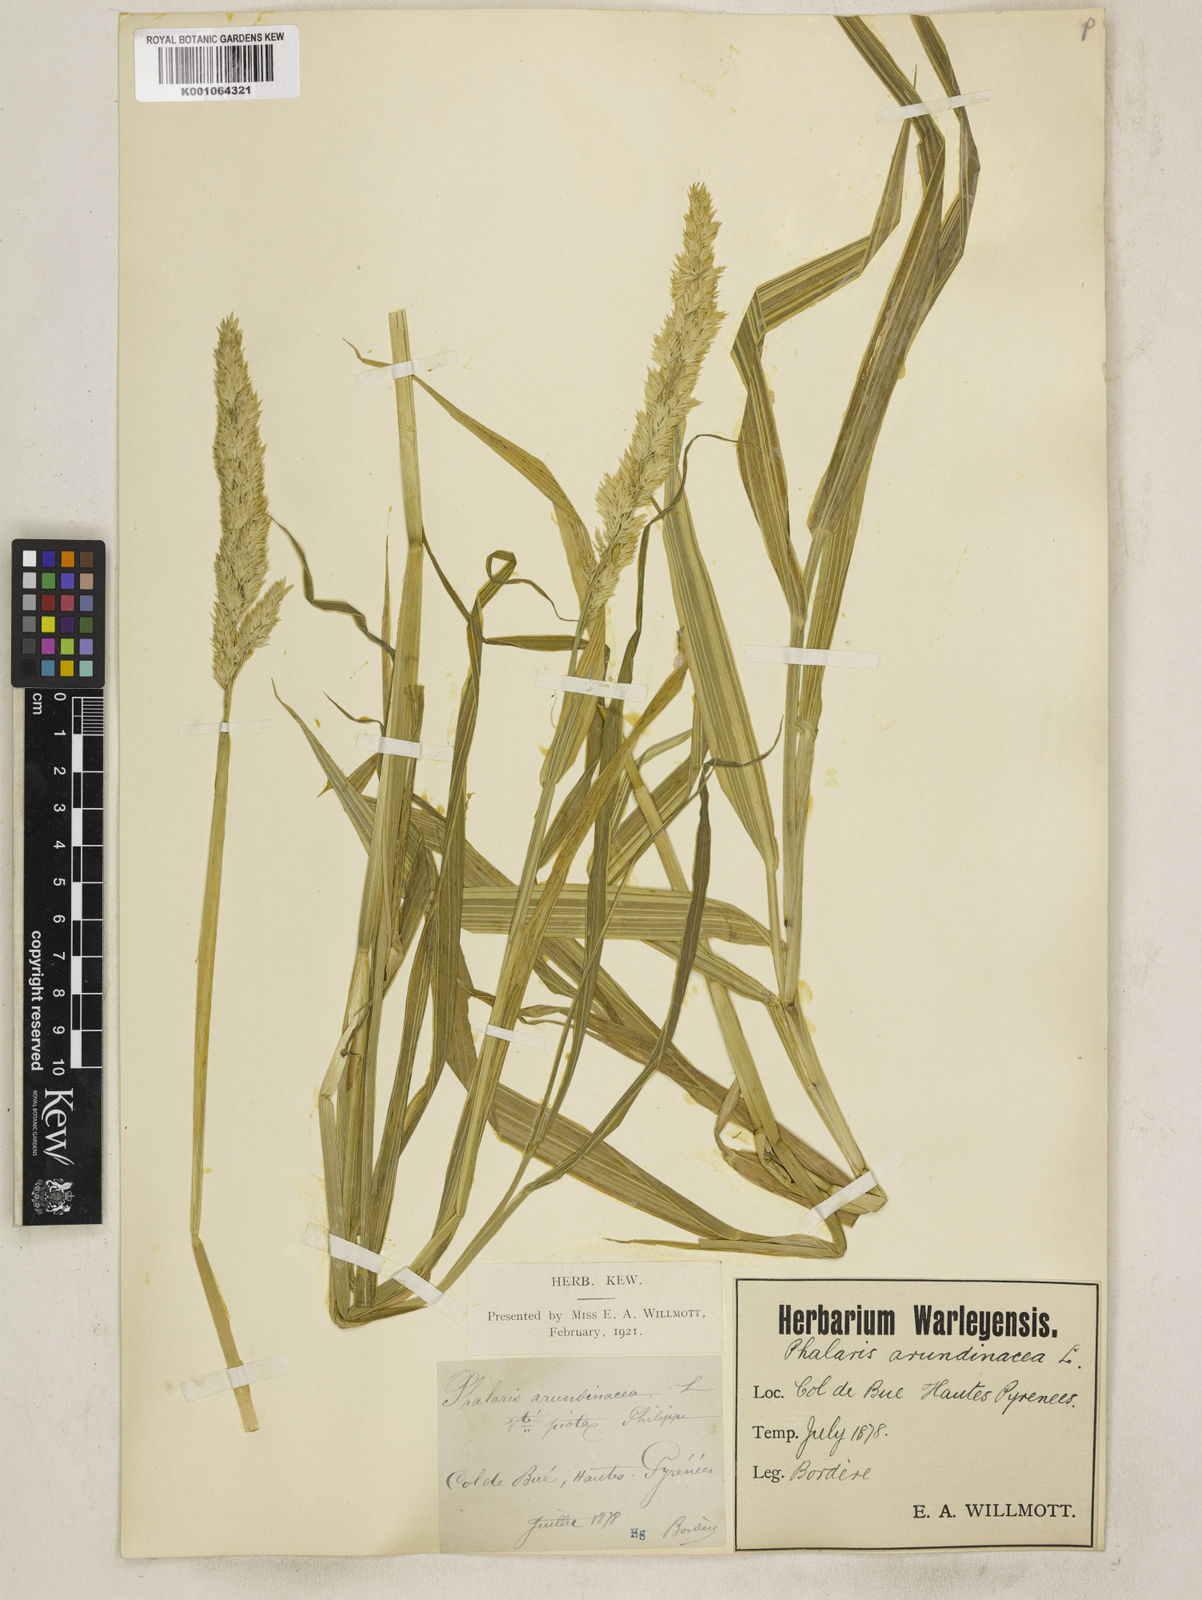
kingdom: Plantae
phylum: Tracheophyta
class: Liliopsida
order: Poales
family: Poaceae
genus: Phalaris
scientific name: Phalaris arundinacea
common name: Reed canary-grass
